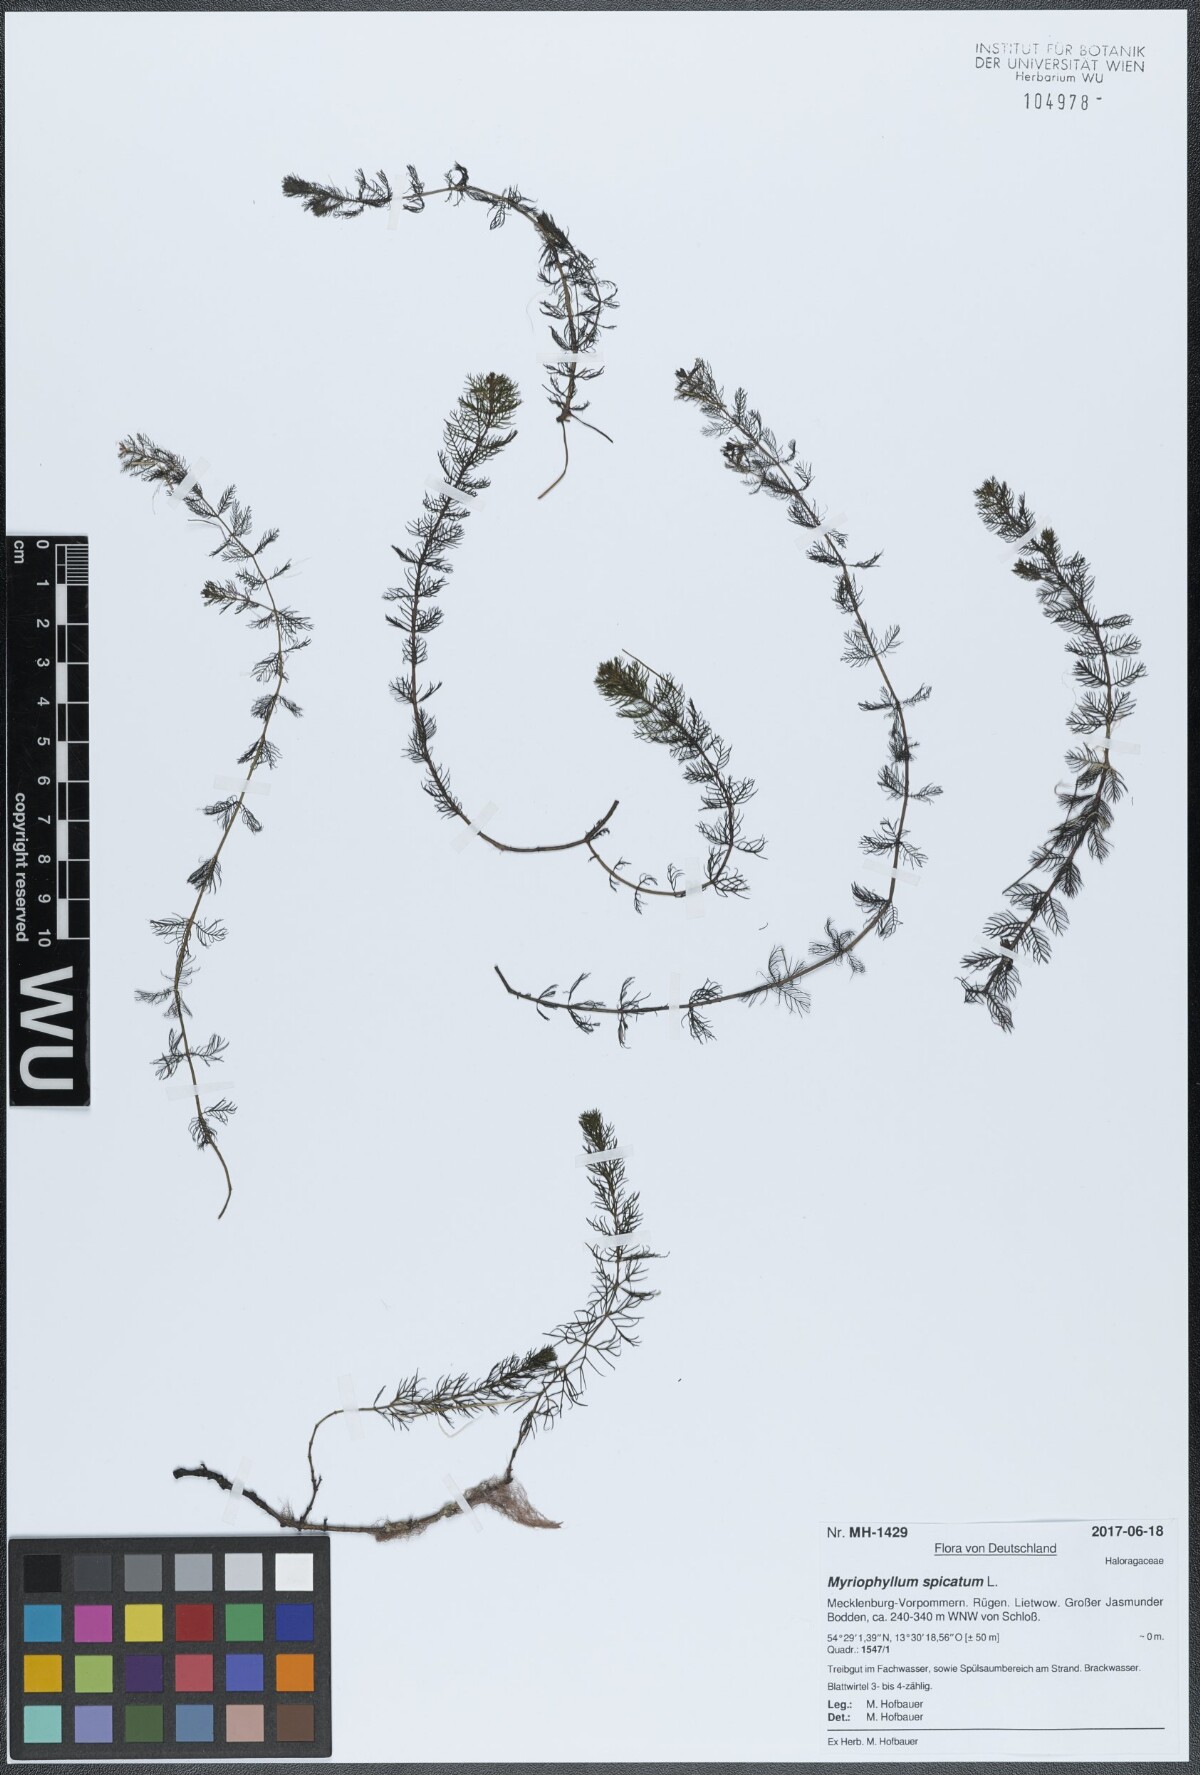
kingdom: Plantae
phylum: Tracheophyta
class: Magnoliopsida
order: Saxifragales
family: Haloragaceae
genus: Myriophyllum
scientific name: Myriophyllum spicatum
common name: Spiked water-milfoil
